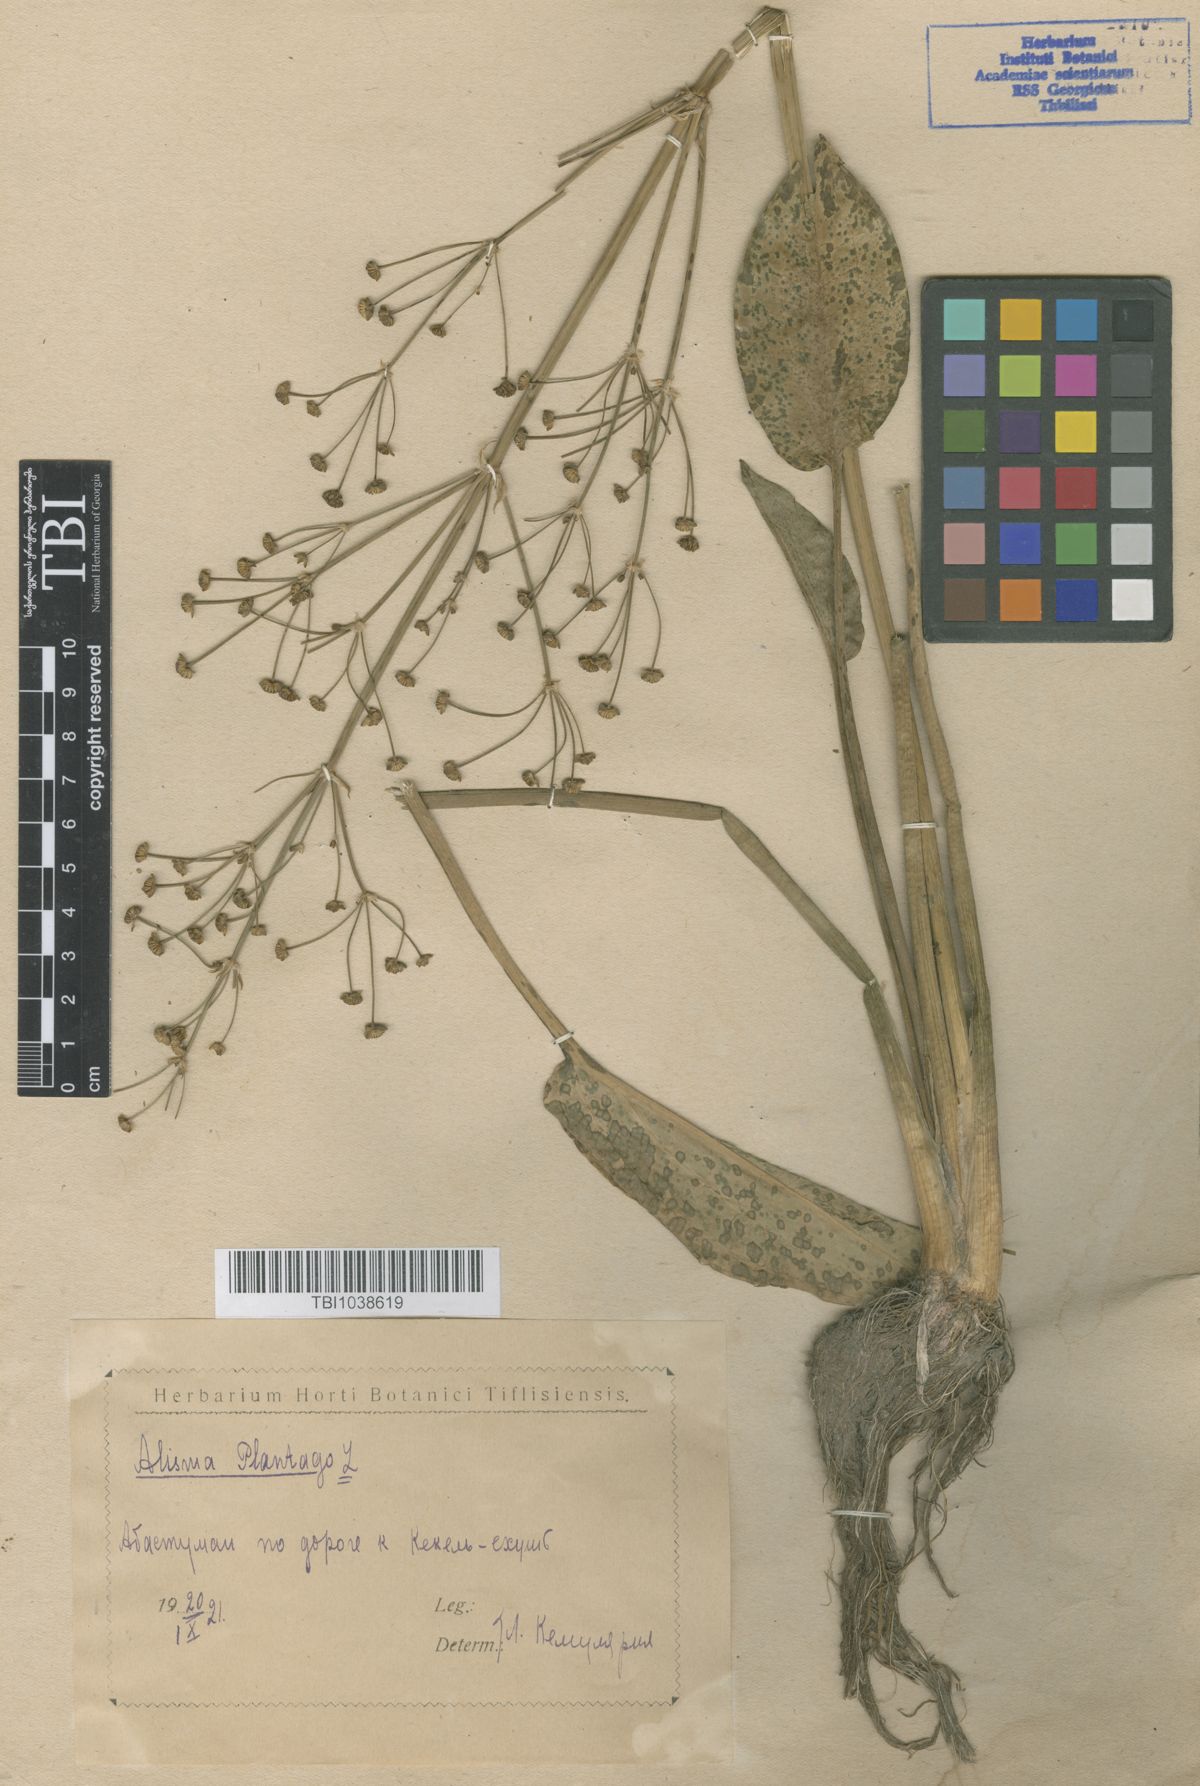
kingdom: Plantae
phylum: Tracheophyta
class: Liliopsida
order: Alismatales
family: Alismataceae
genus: Alisma
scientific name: Alisma plantago-aquatica
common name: Water-plantain
